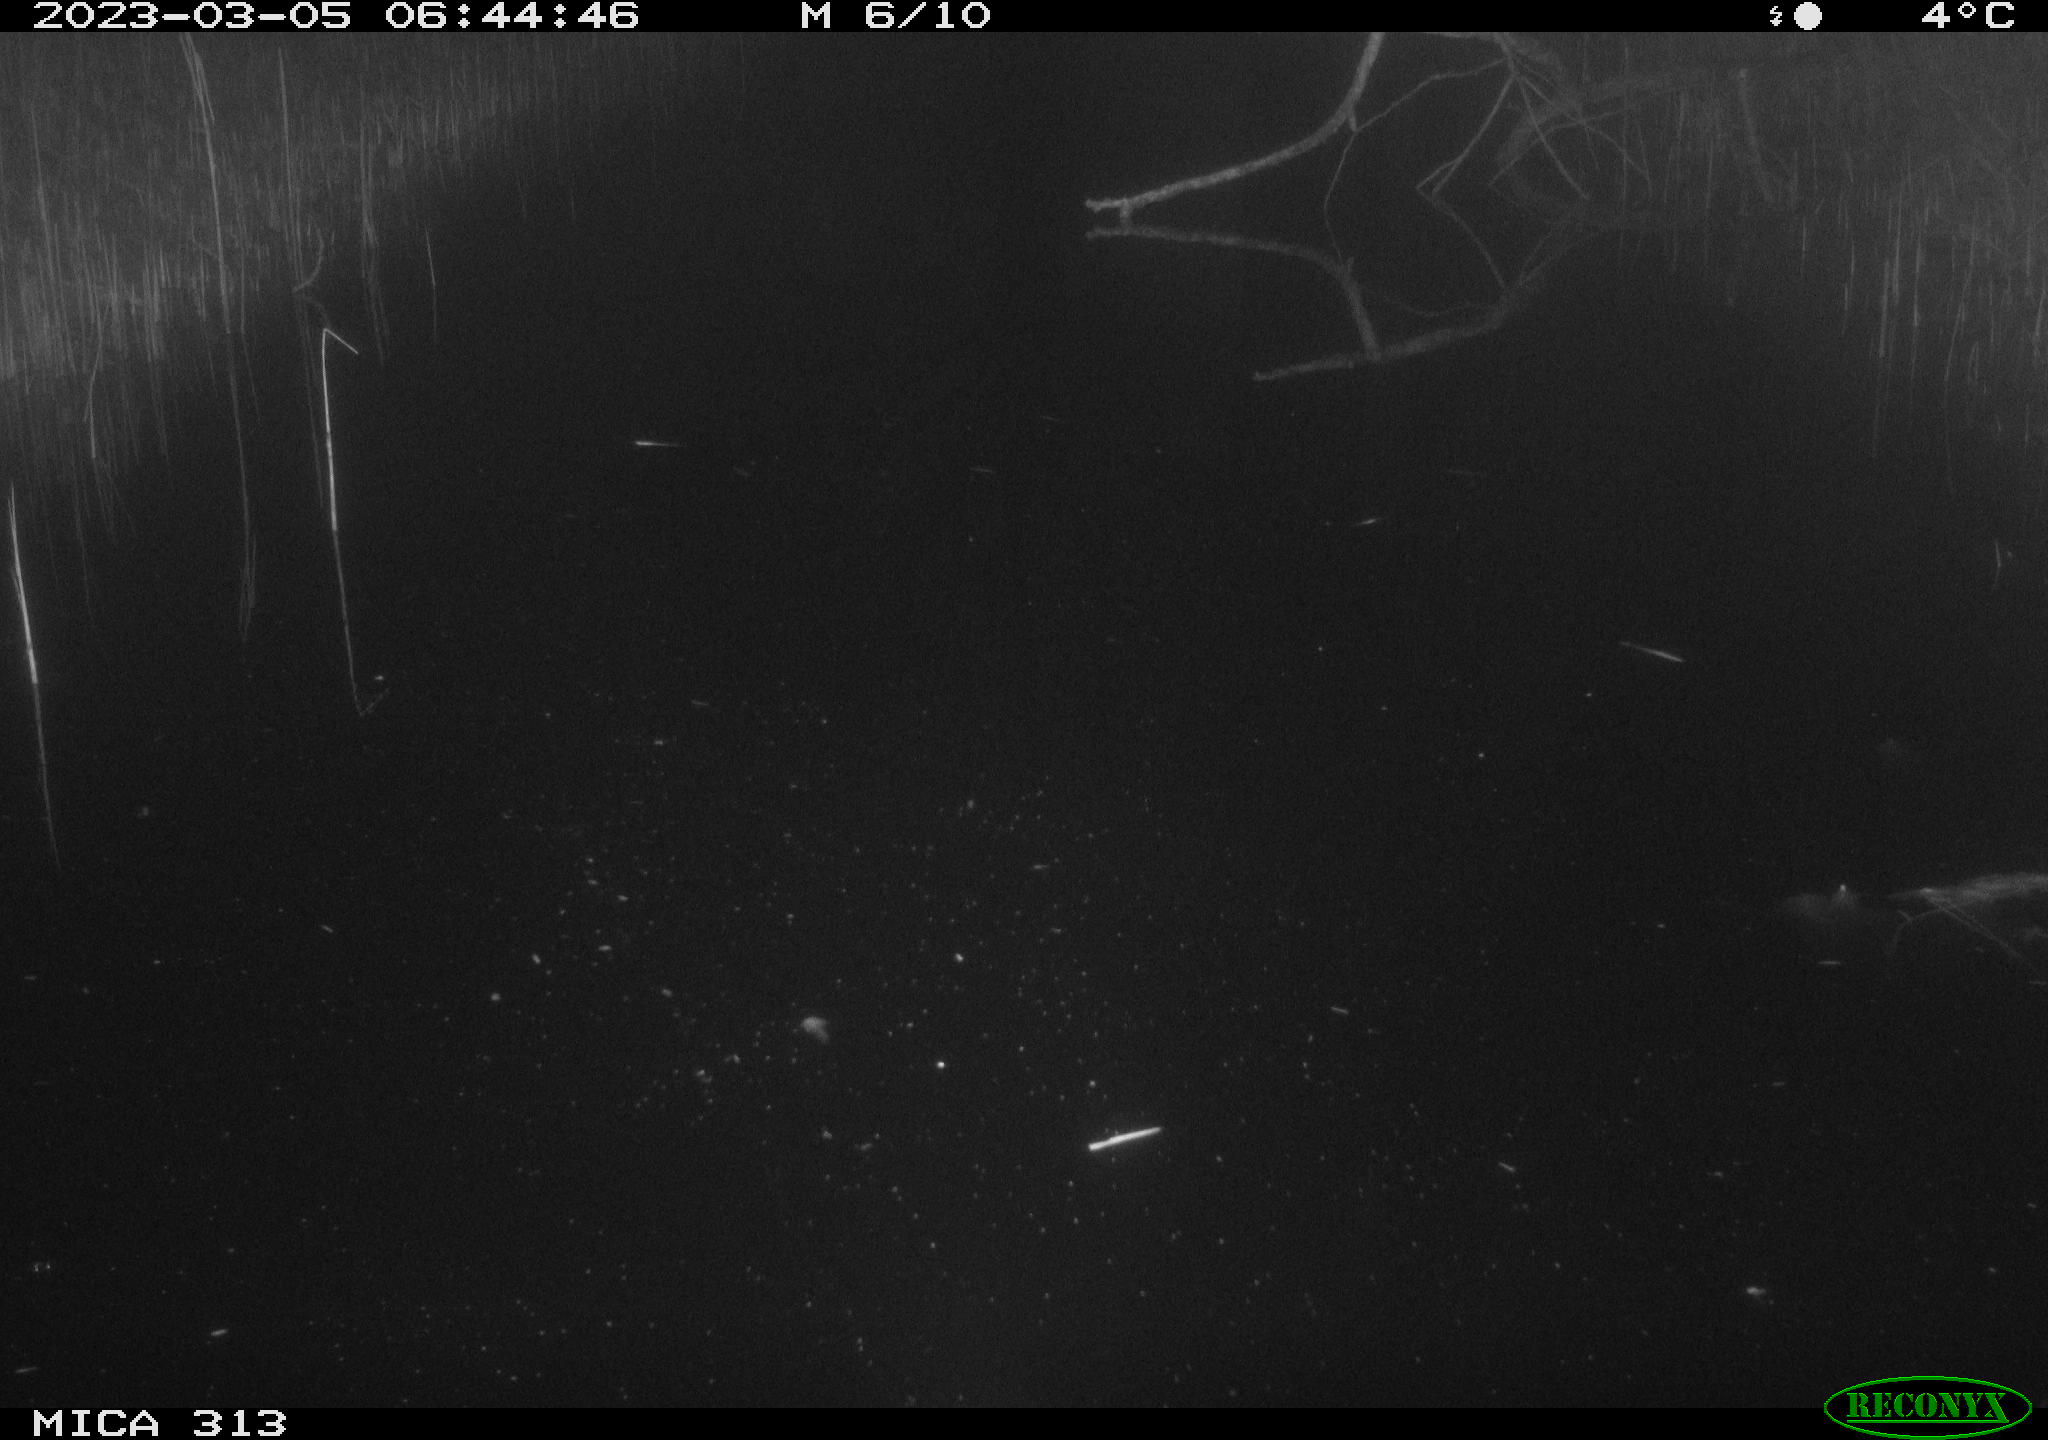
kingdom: Animalia
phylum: Chordata
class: Aves
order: Gruiformes
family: Rallidae
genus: Fulica
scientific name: Fulica atra
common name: Eurasian coot
